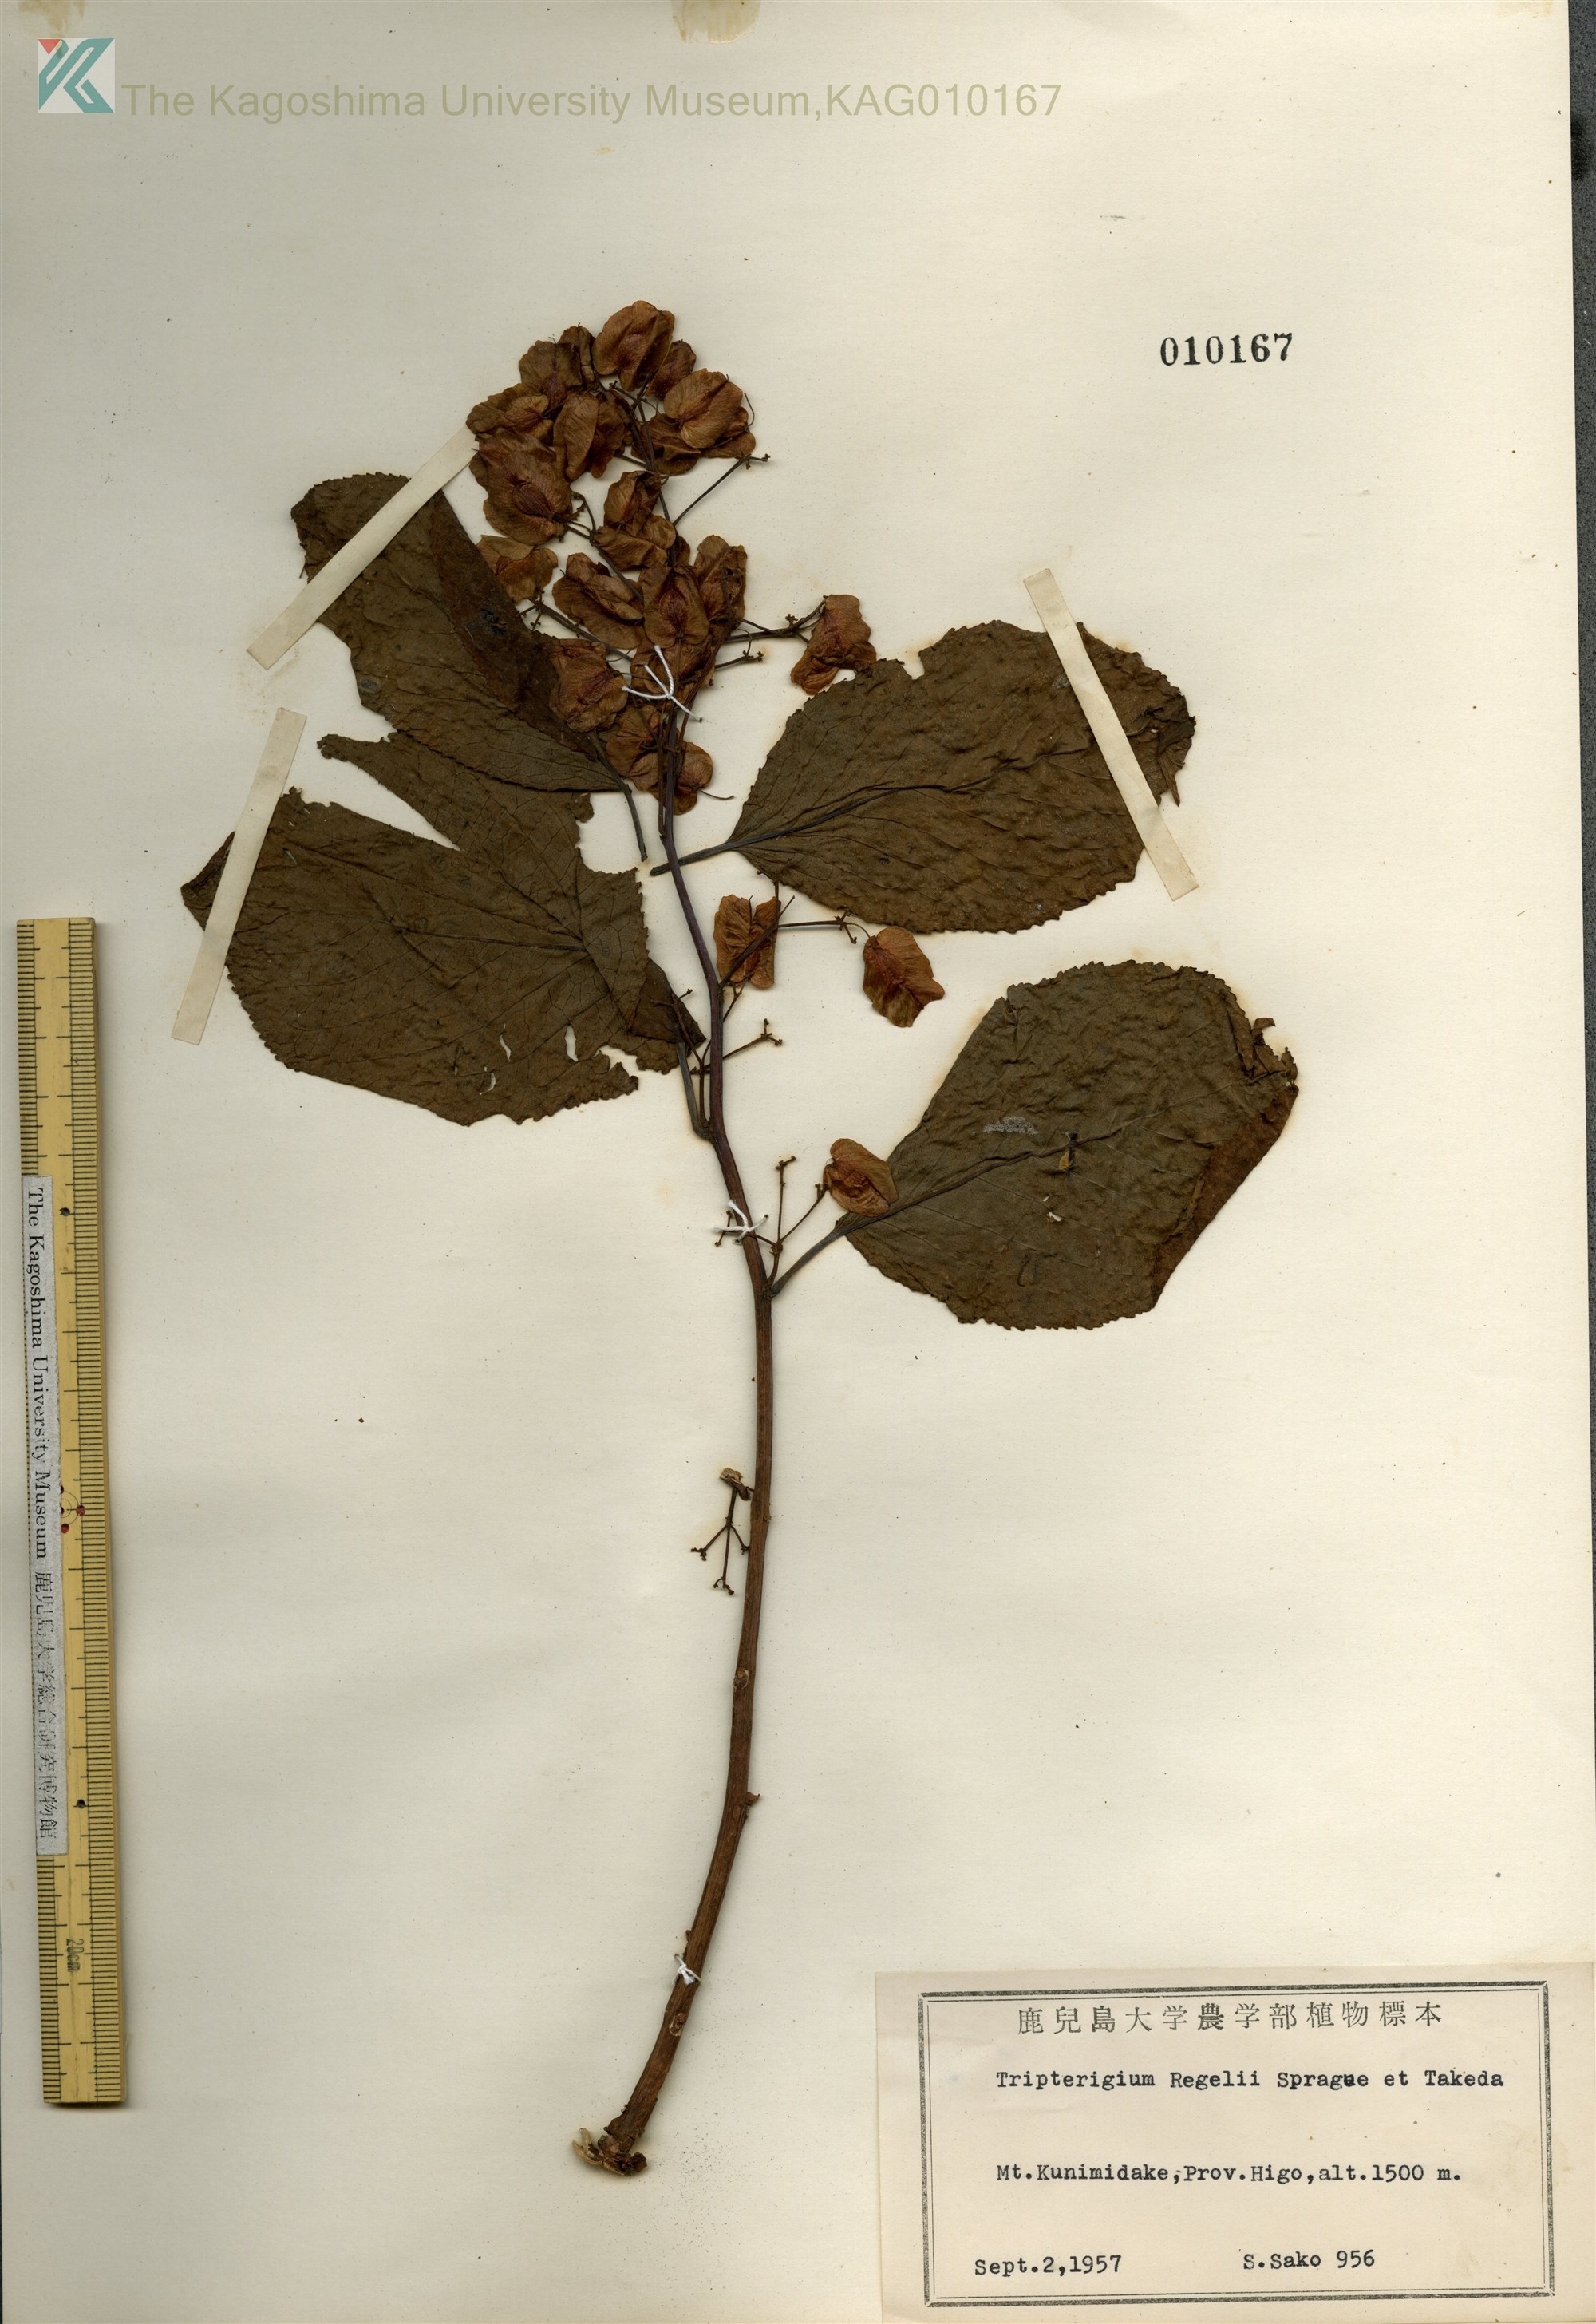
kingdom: Plantae
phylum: Tracheophyta
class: Magnoliopsida
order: Celastrales
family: Celastraceae
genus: Tripterygium
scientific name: Tripterygium wilfordii
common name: クロヅル
